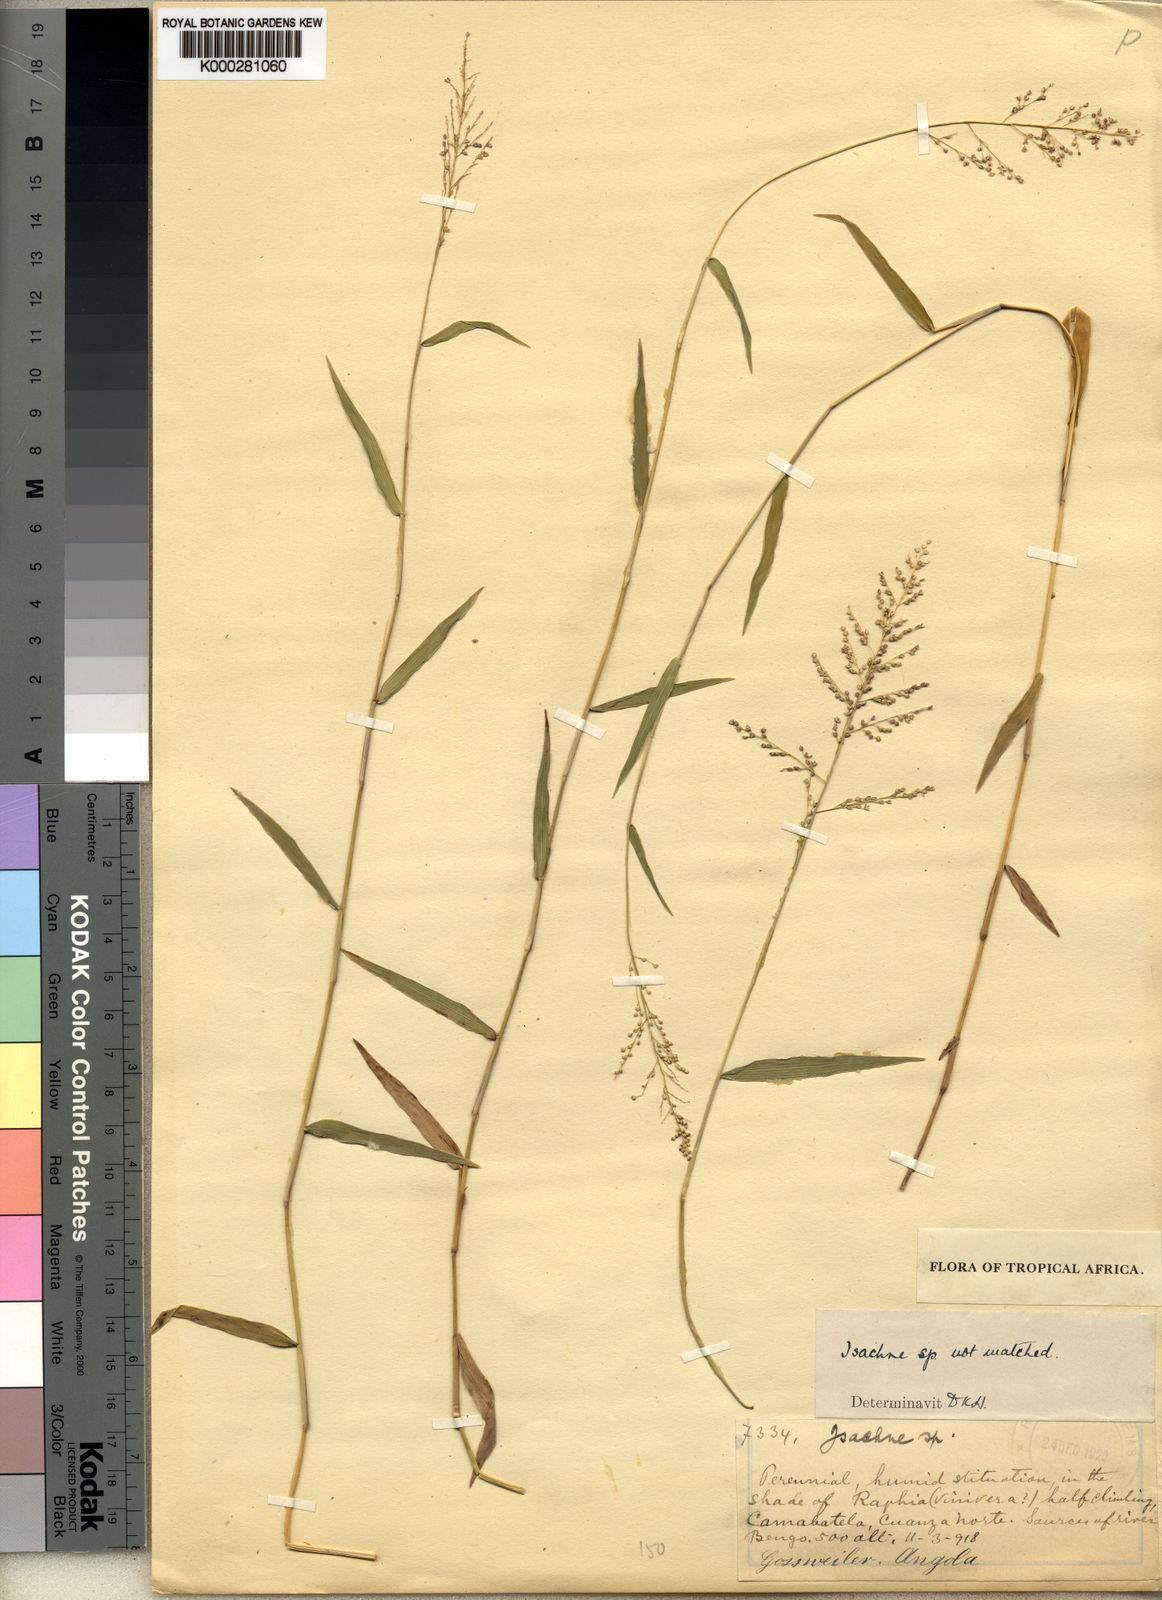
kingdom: Plantae
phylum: Tracheophyta
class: Liliopsida
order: Poales
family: Poaceae
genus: Isachne
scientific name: Isachne gossweileri
